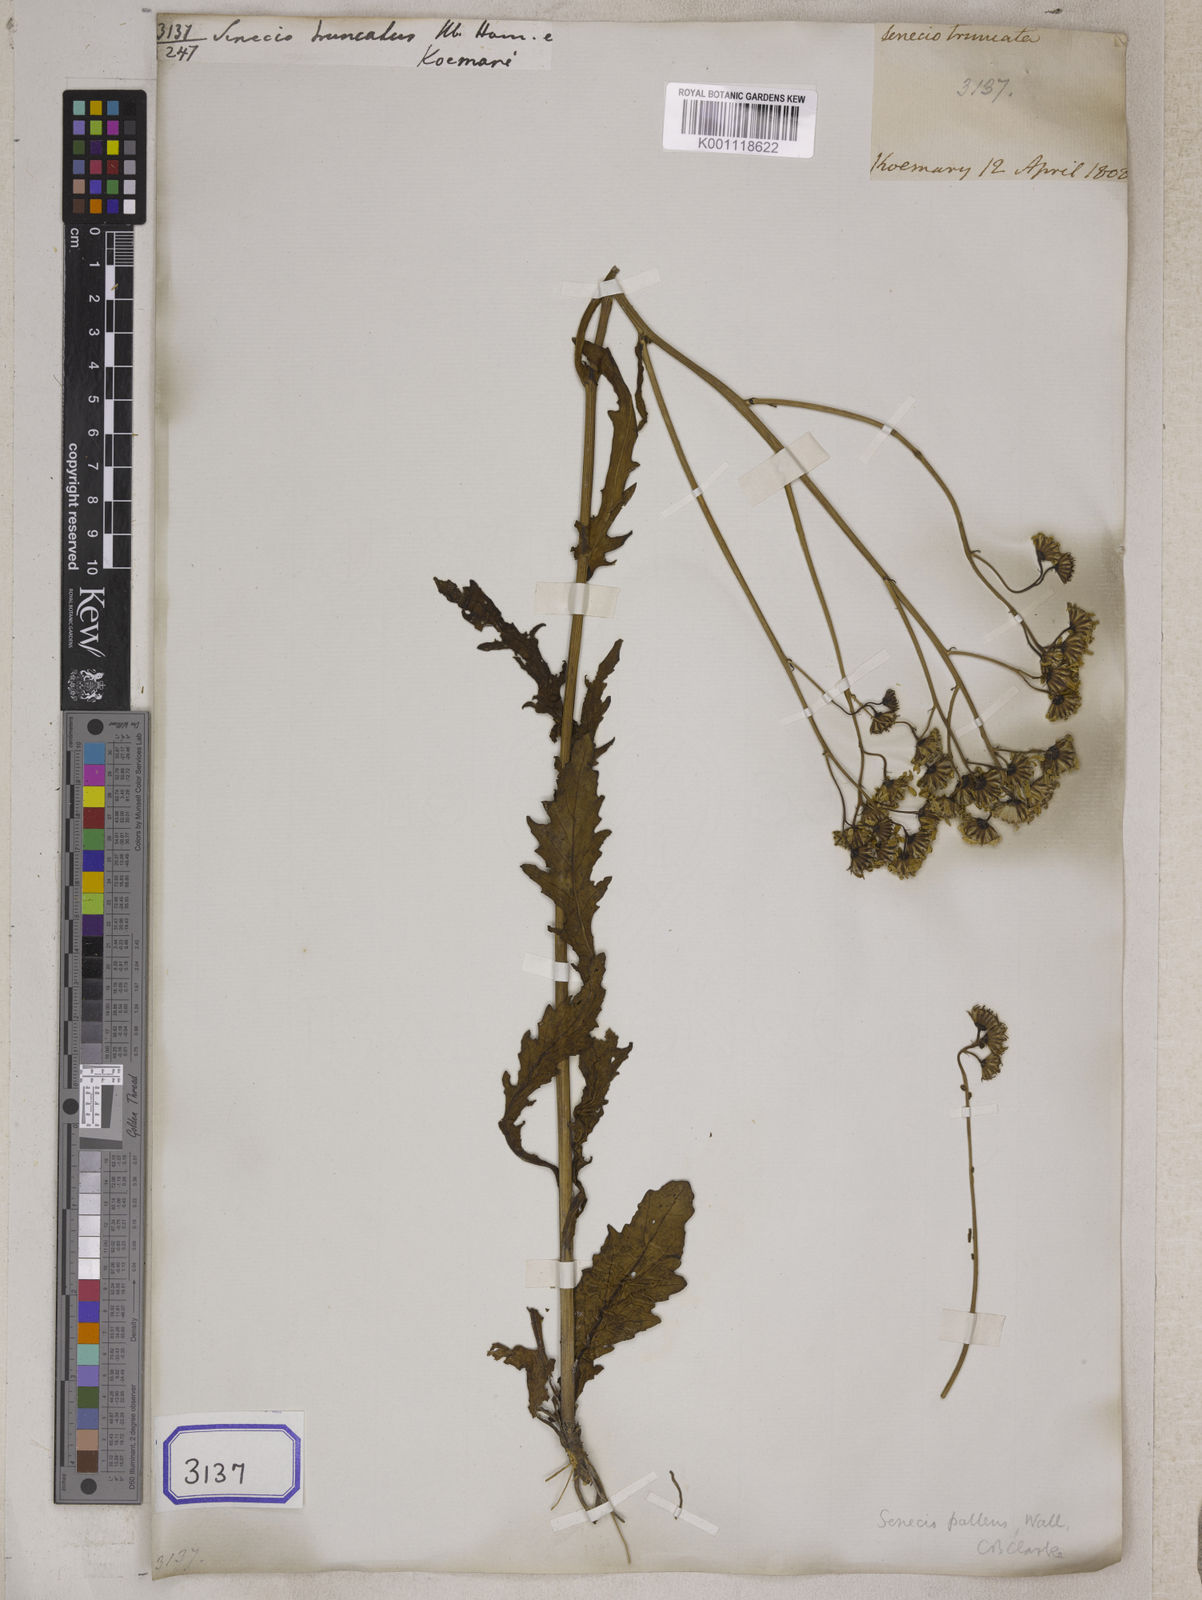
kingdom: Plantae
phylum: Tracheophyta
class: Magnoliopsida
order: Asterales
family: Asteraceae
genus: Jacobaea
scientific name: Jacobaea nudicaulis
